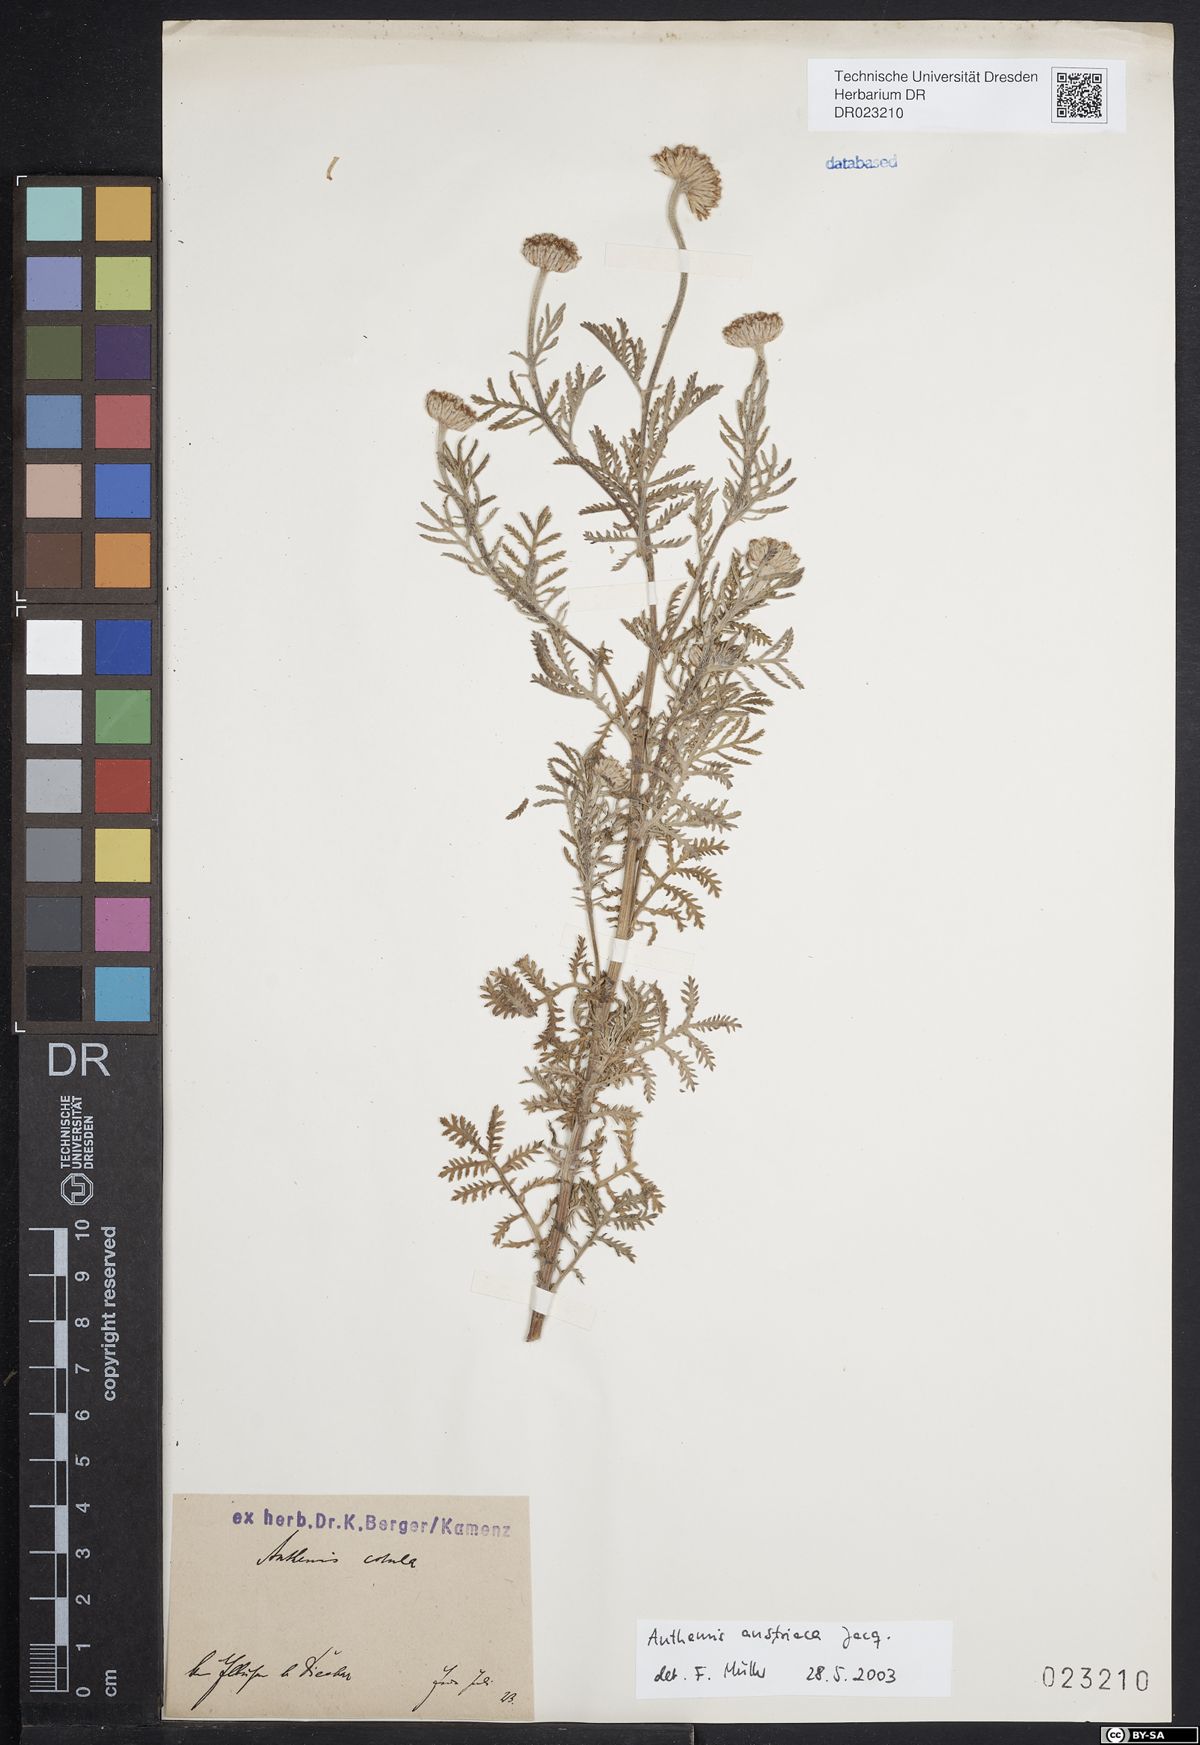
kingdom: Plantae
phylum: Tracheophyta
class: Magnoliopsida
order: Asterales
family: Asteraceae
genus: Cota
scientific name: Cota austriaca
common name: Austrian chamomile
